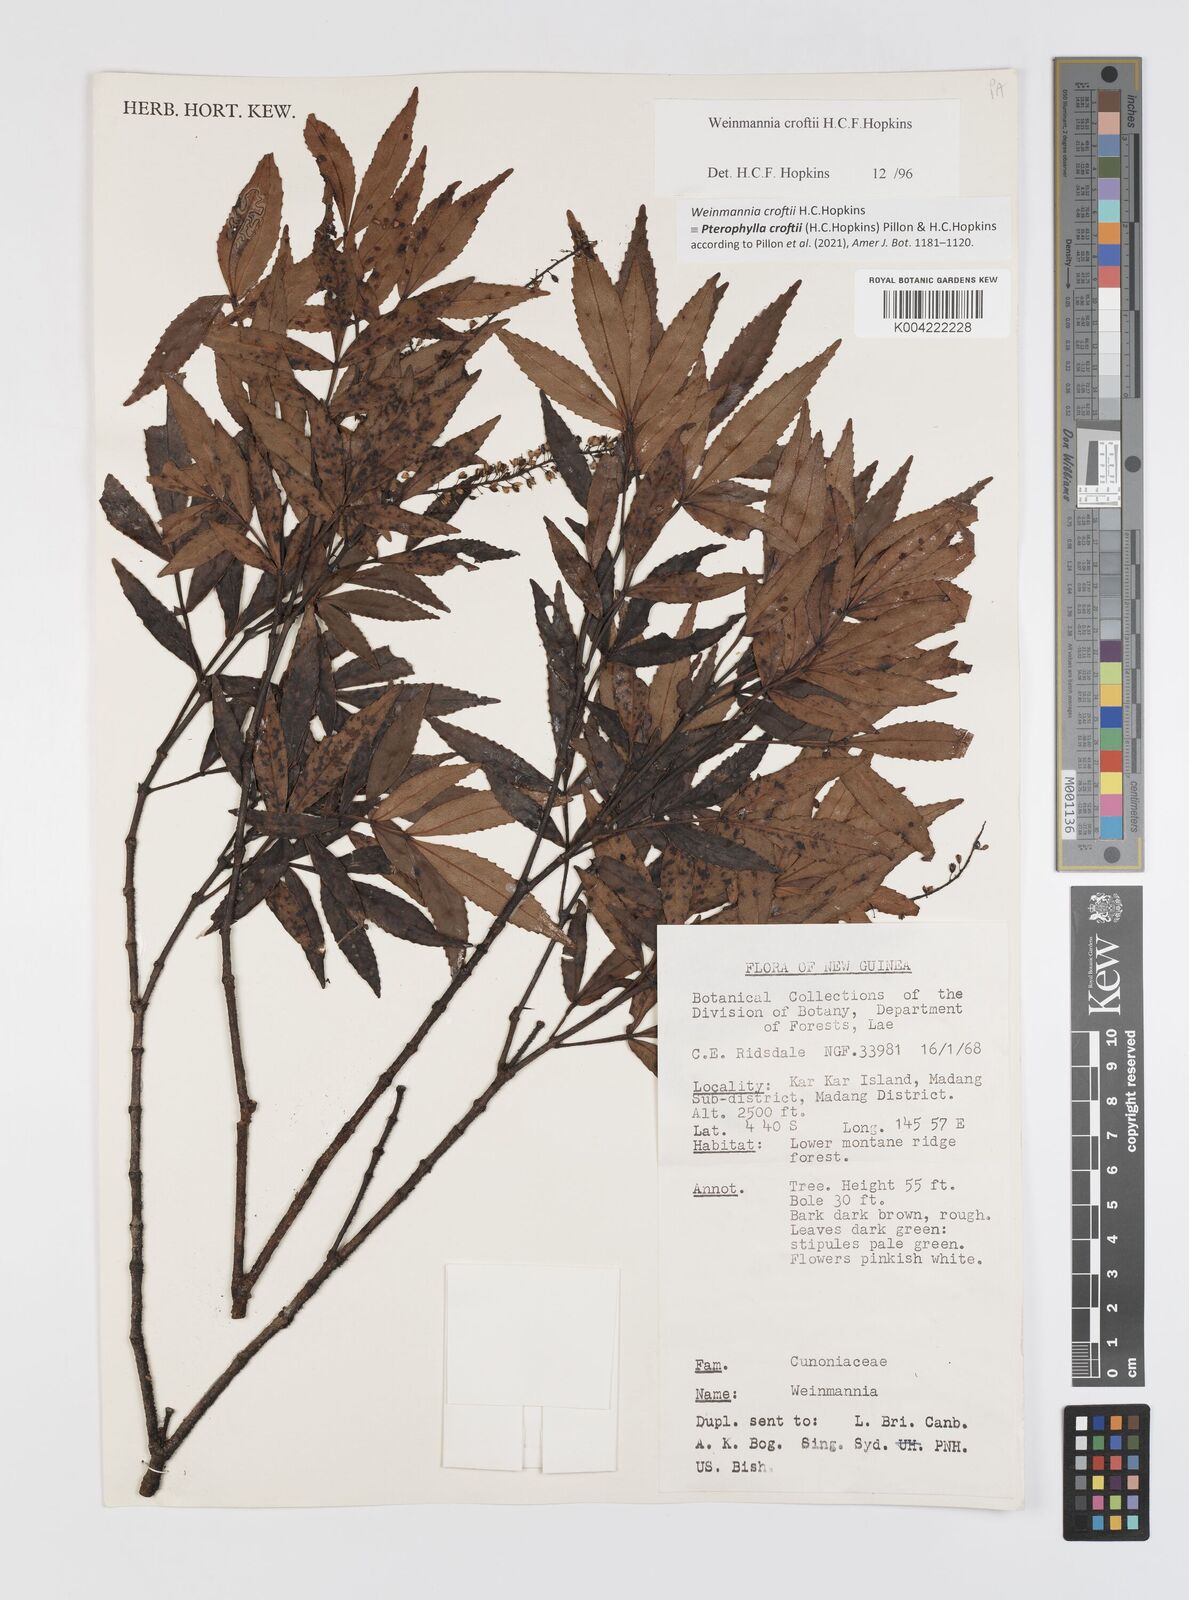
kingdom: Plantae
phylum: Tracheophyta
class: Magnoliopsida
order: Oxalidales
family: Cunoniaceae
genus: Pterophylla
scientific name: Pterophylla croftii
